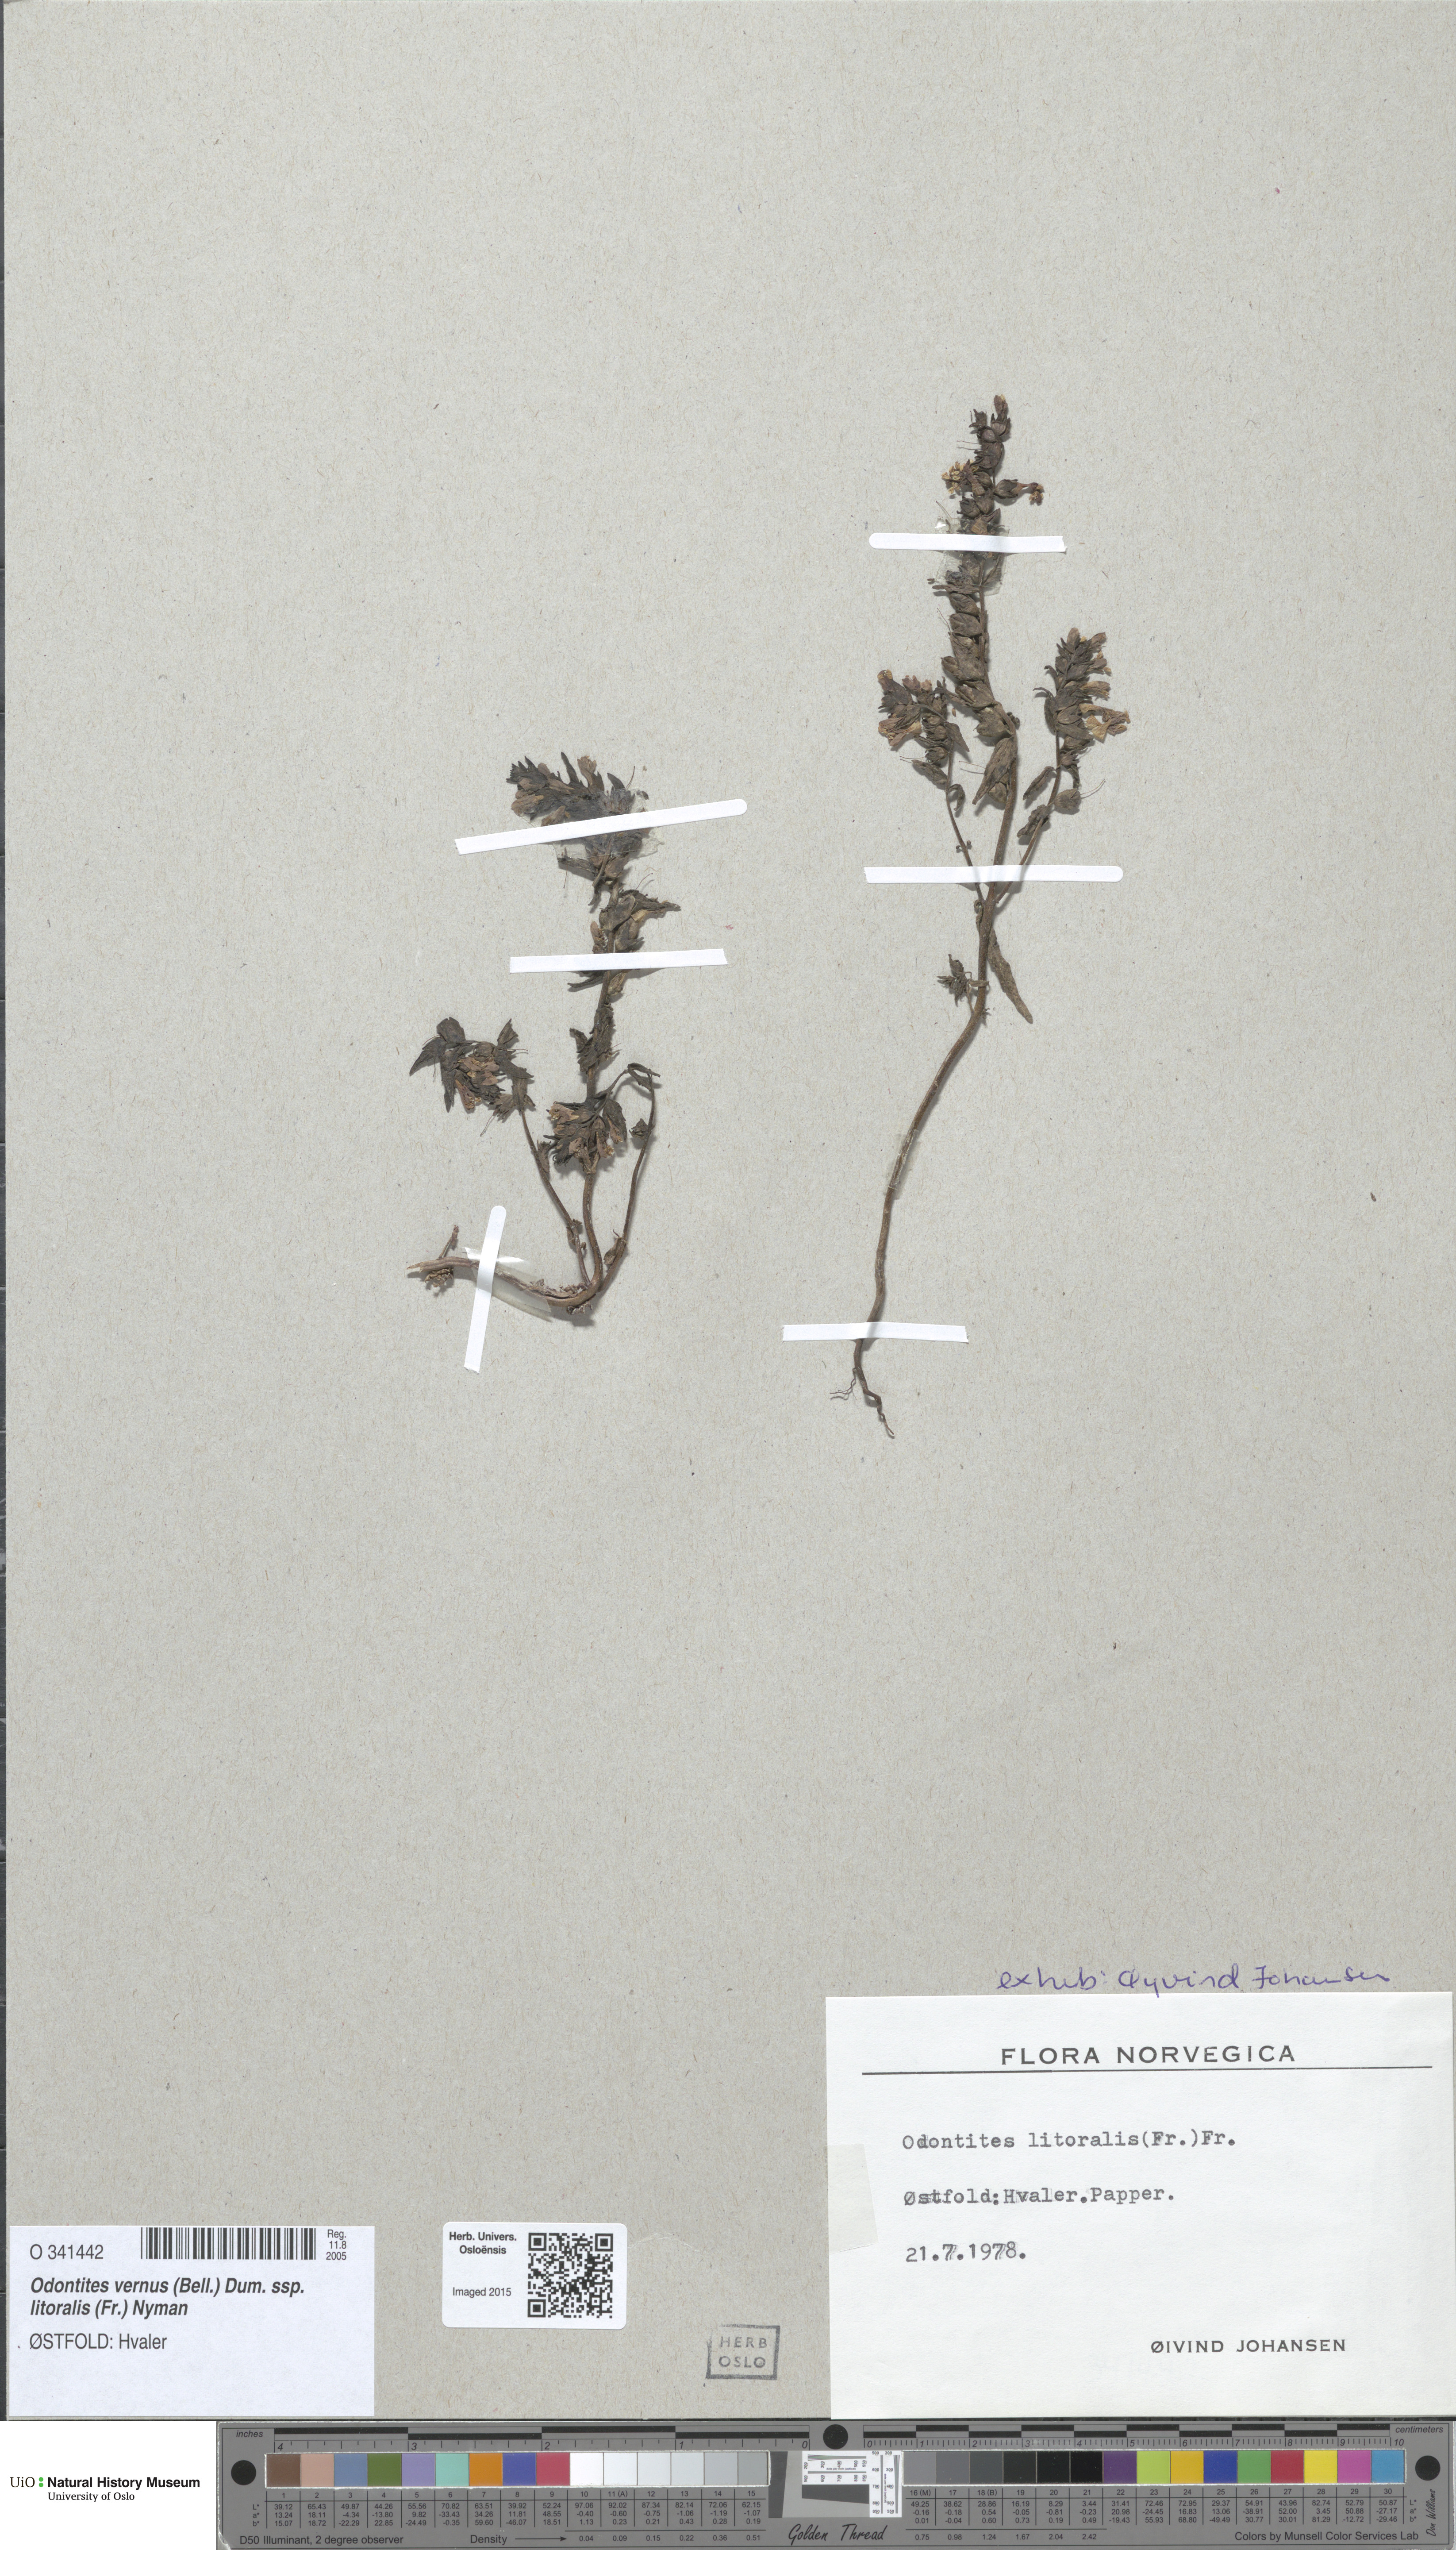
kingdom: Plantae
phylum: Tracheophyta
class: Magnoliopsida
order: Lamiales
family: Orobanchaceae
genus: Odontites
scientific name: Odontites litoralis
